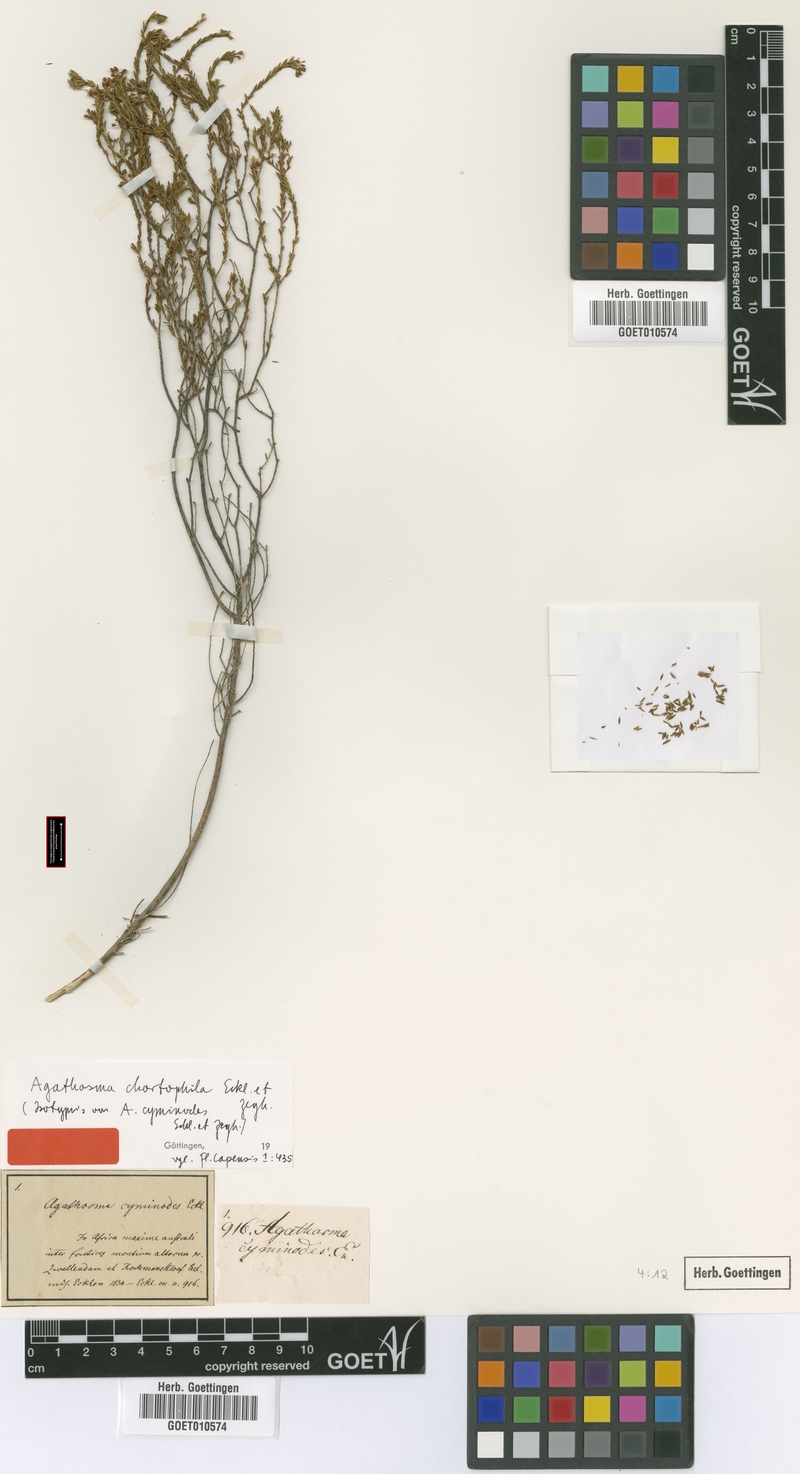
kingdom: Plantae
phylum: Tracheophyta
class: Magnoliopsida
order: Sapindales
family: Rutaceae
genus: Agathosma
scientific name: Agathosma capensis
